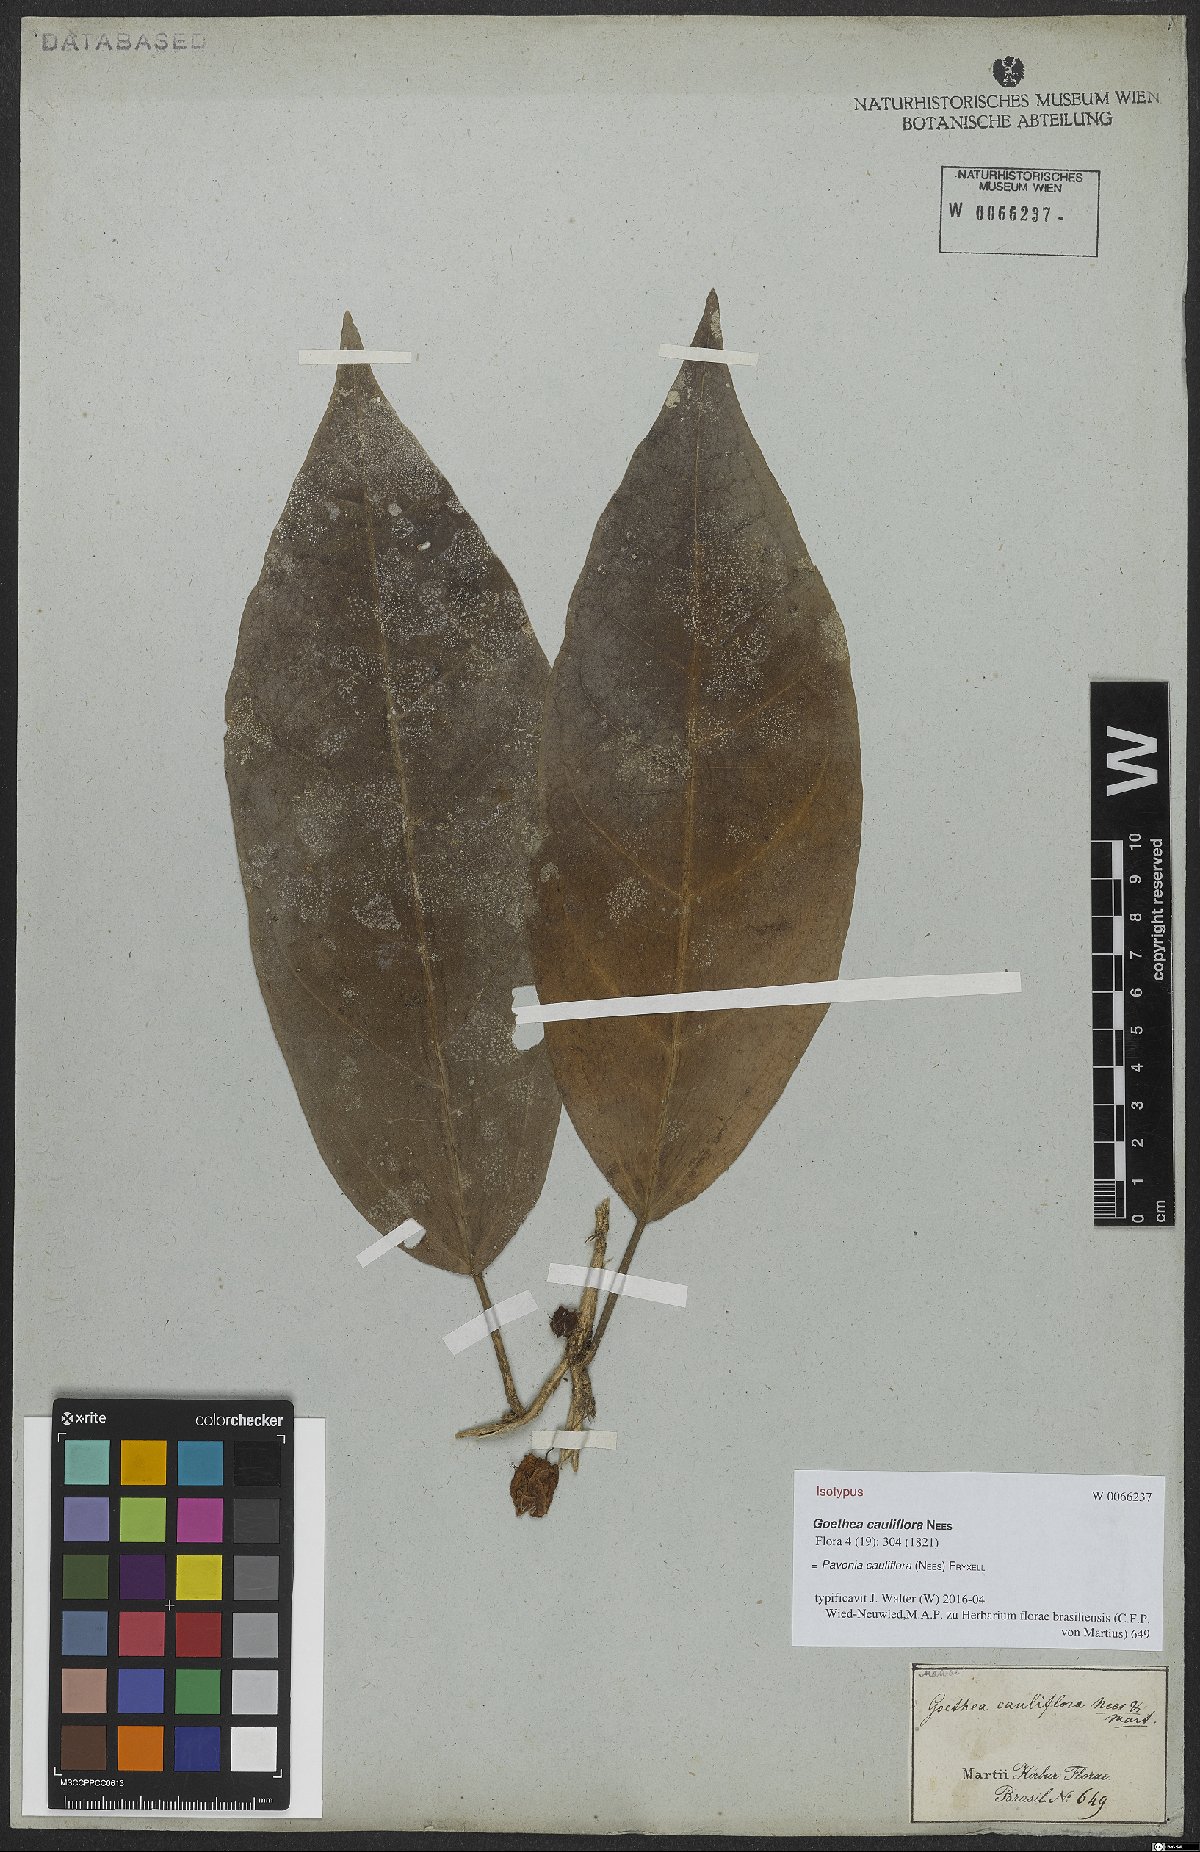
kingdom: Plantae
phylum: Tracheophyta
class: Magnoliopsida
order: Malvales
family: Malvaceae
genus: Pavonia
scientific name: Pavonia cauliflora
